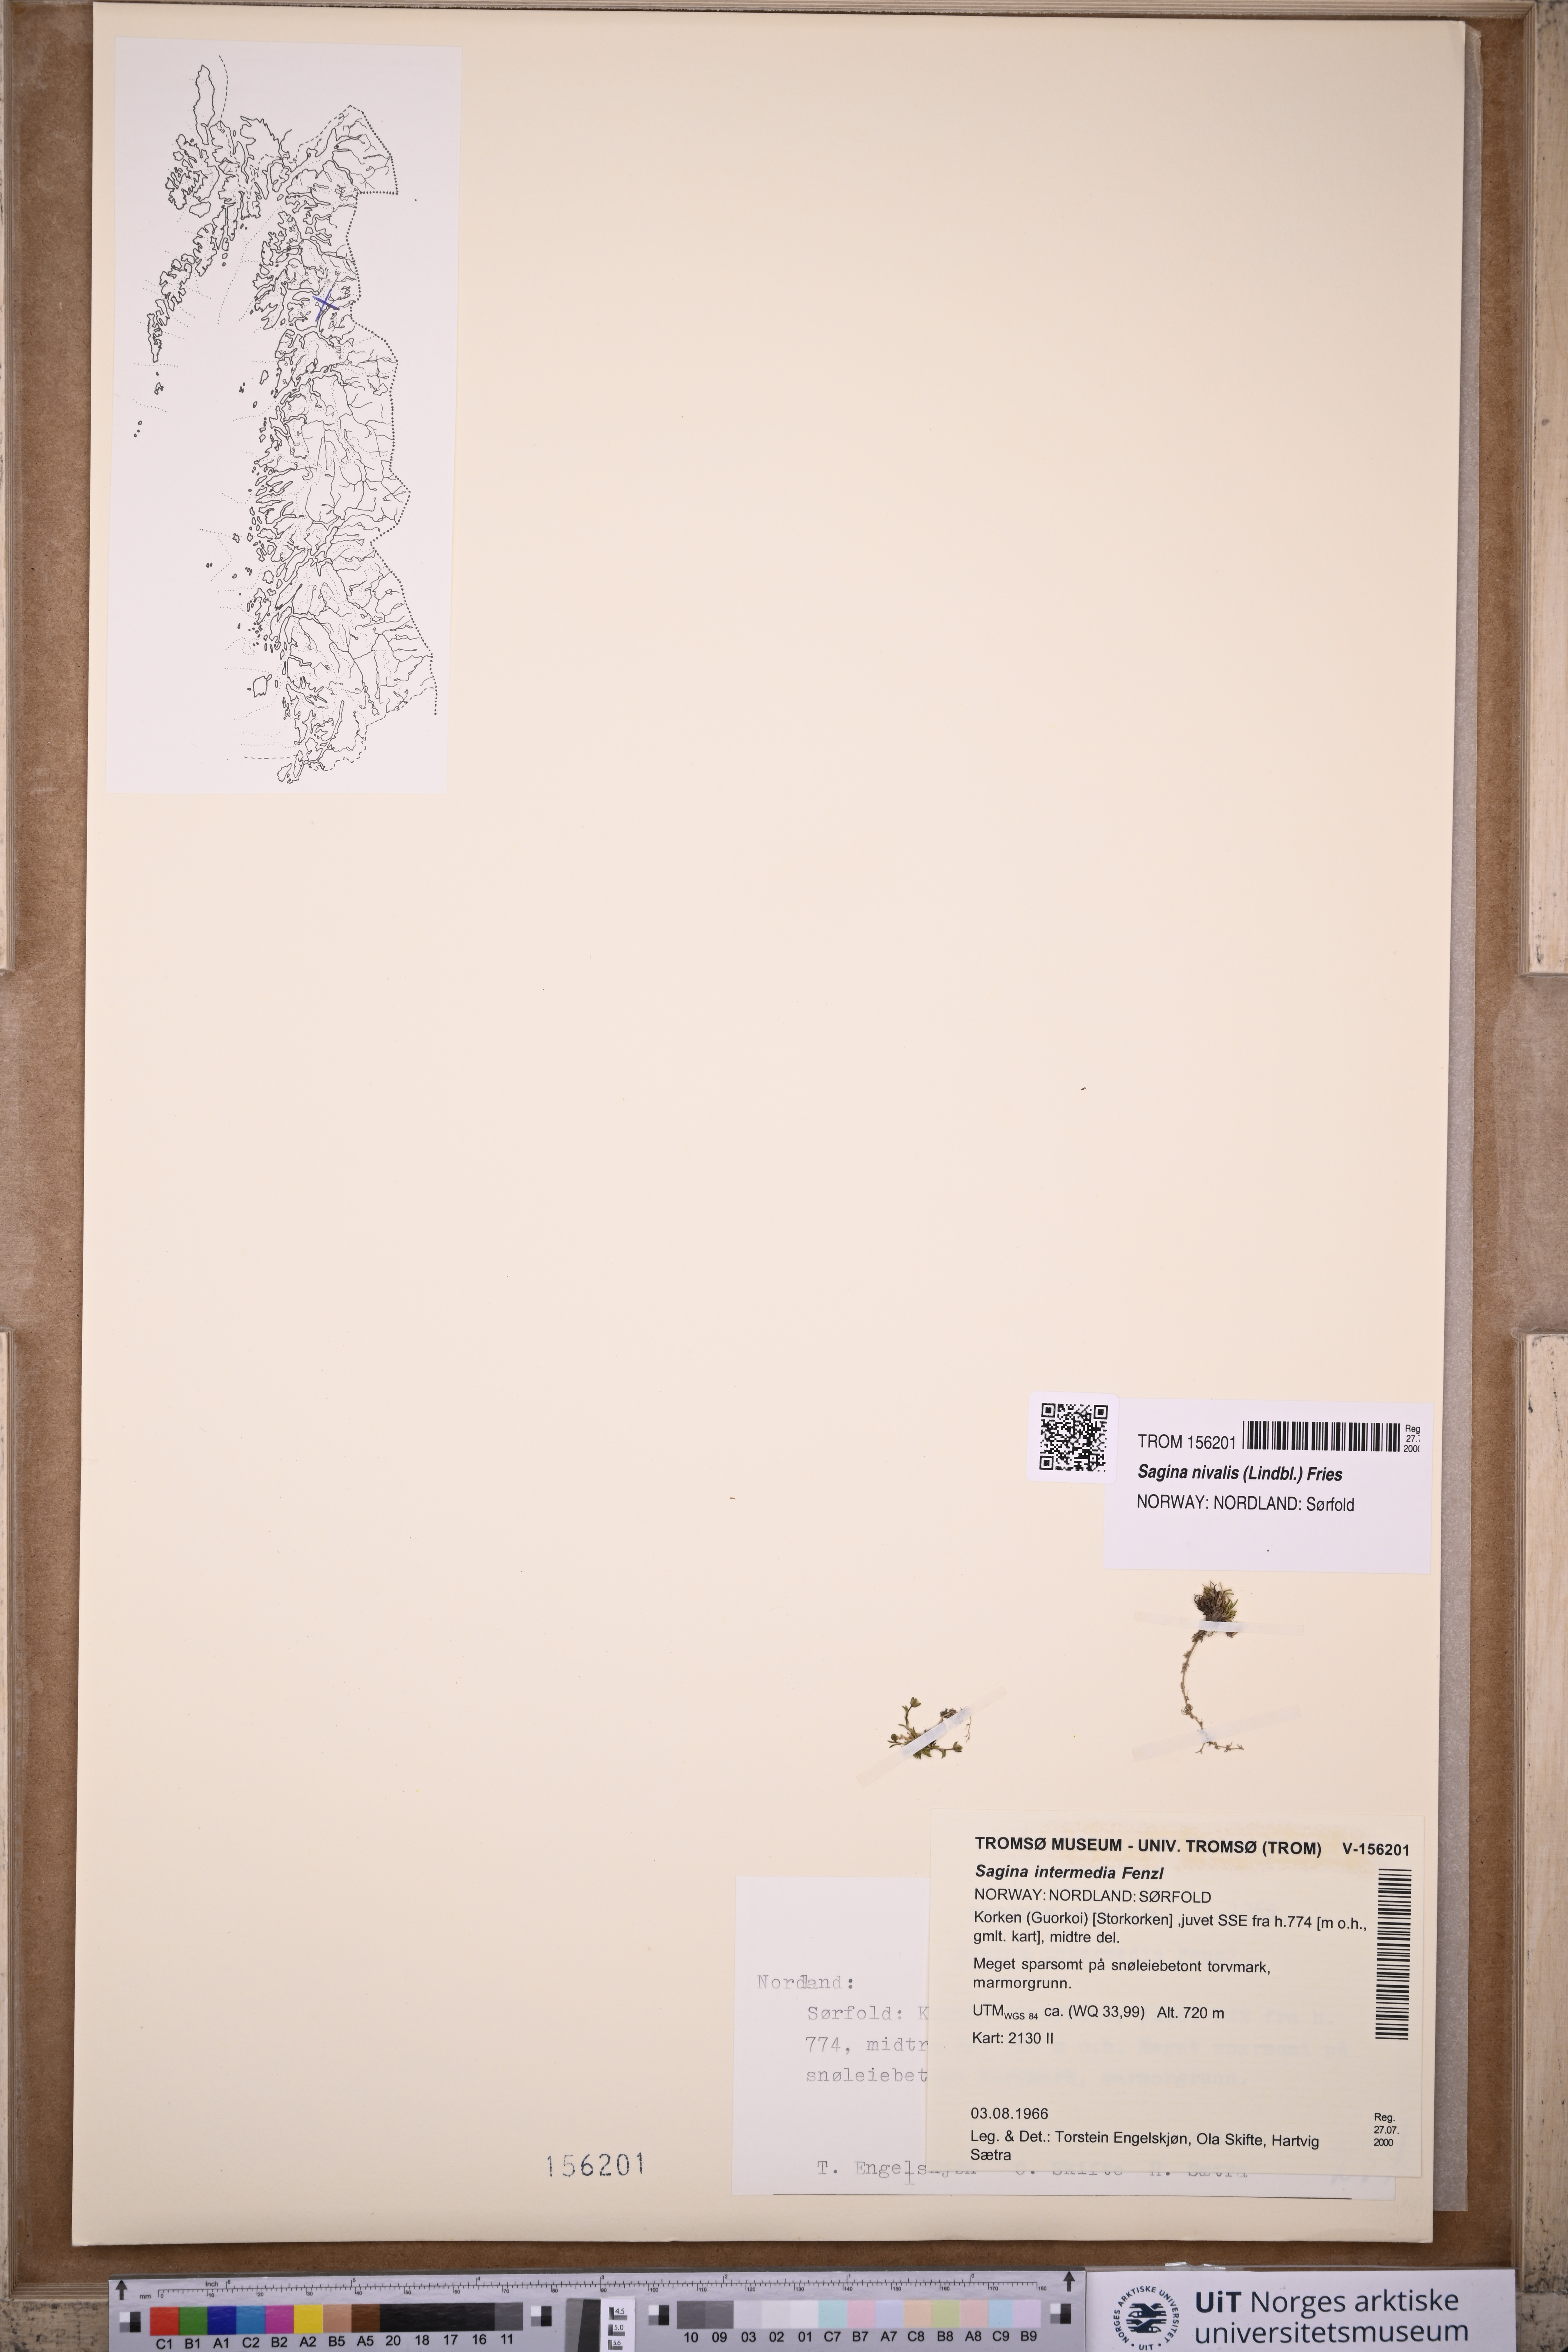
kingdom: Plantae
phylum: Tracheophyta
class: Magnoliopsida
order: Caryophyllales
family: Caryophyllaceae
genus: Sagina
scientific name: Sagina nivalis
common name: Snow pearlwort
